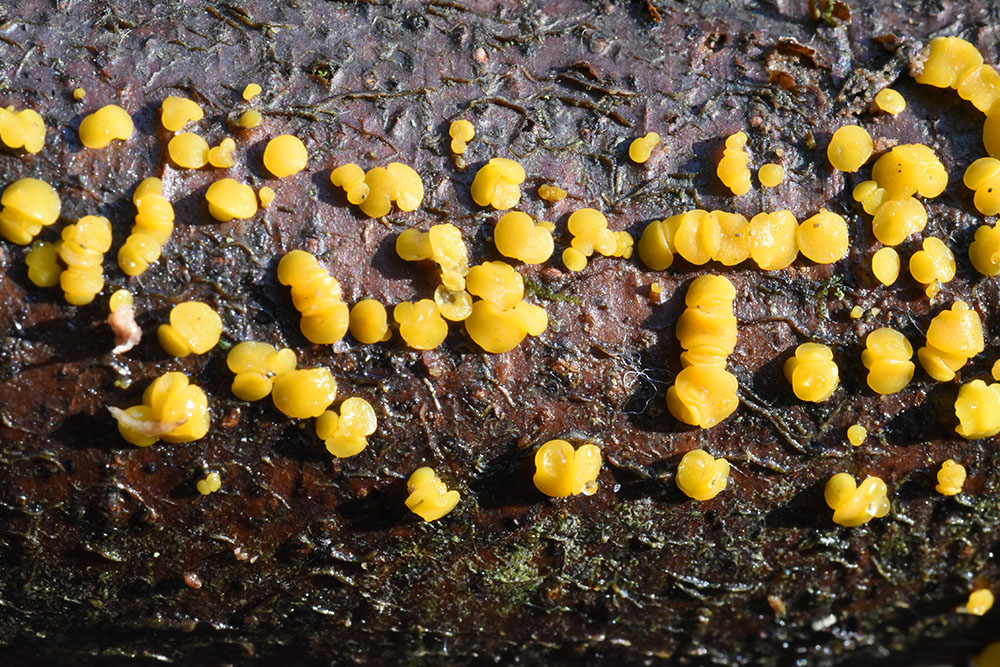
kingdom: Fungi
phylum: Ascomycota
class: Leotiomycetes
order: Helotiales
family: Pezizellaceae
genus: Calycina
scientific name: Calycina citrina
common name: Yellow fairy cups
